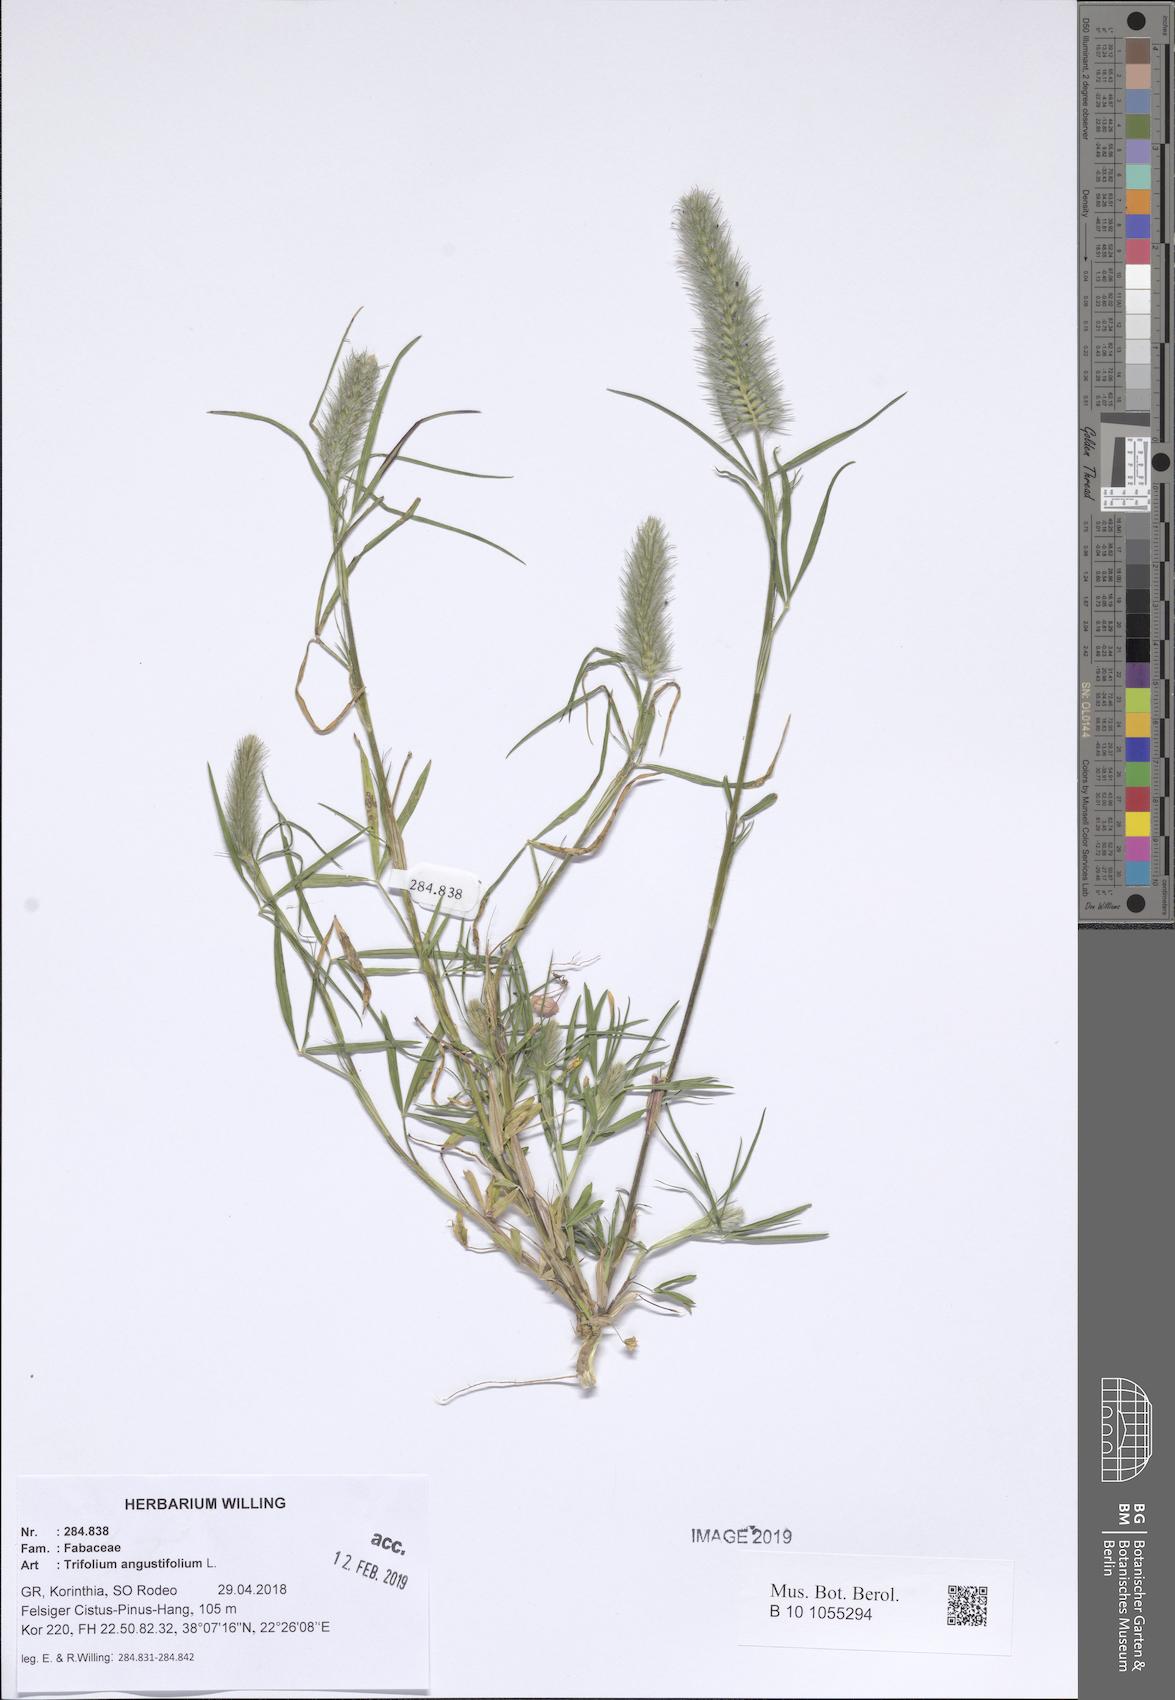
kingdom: Plantae
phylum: Tracheophyta
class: Magnoliopsida
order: Fabales
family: Fabaceae
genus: Trifolium
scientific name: Trifolium angustifolium
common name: Narrow clover
